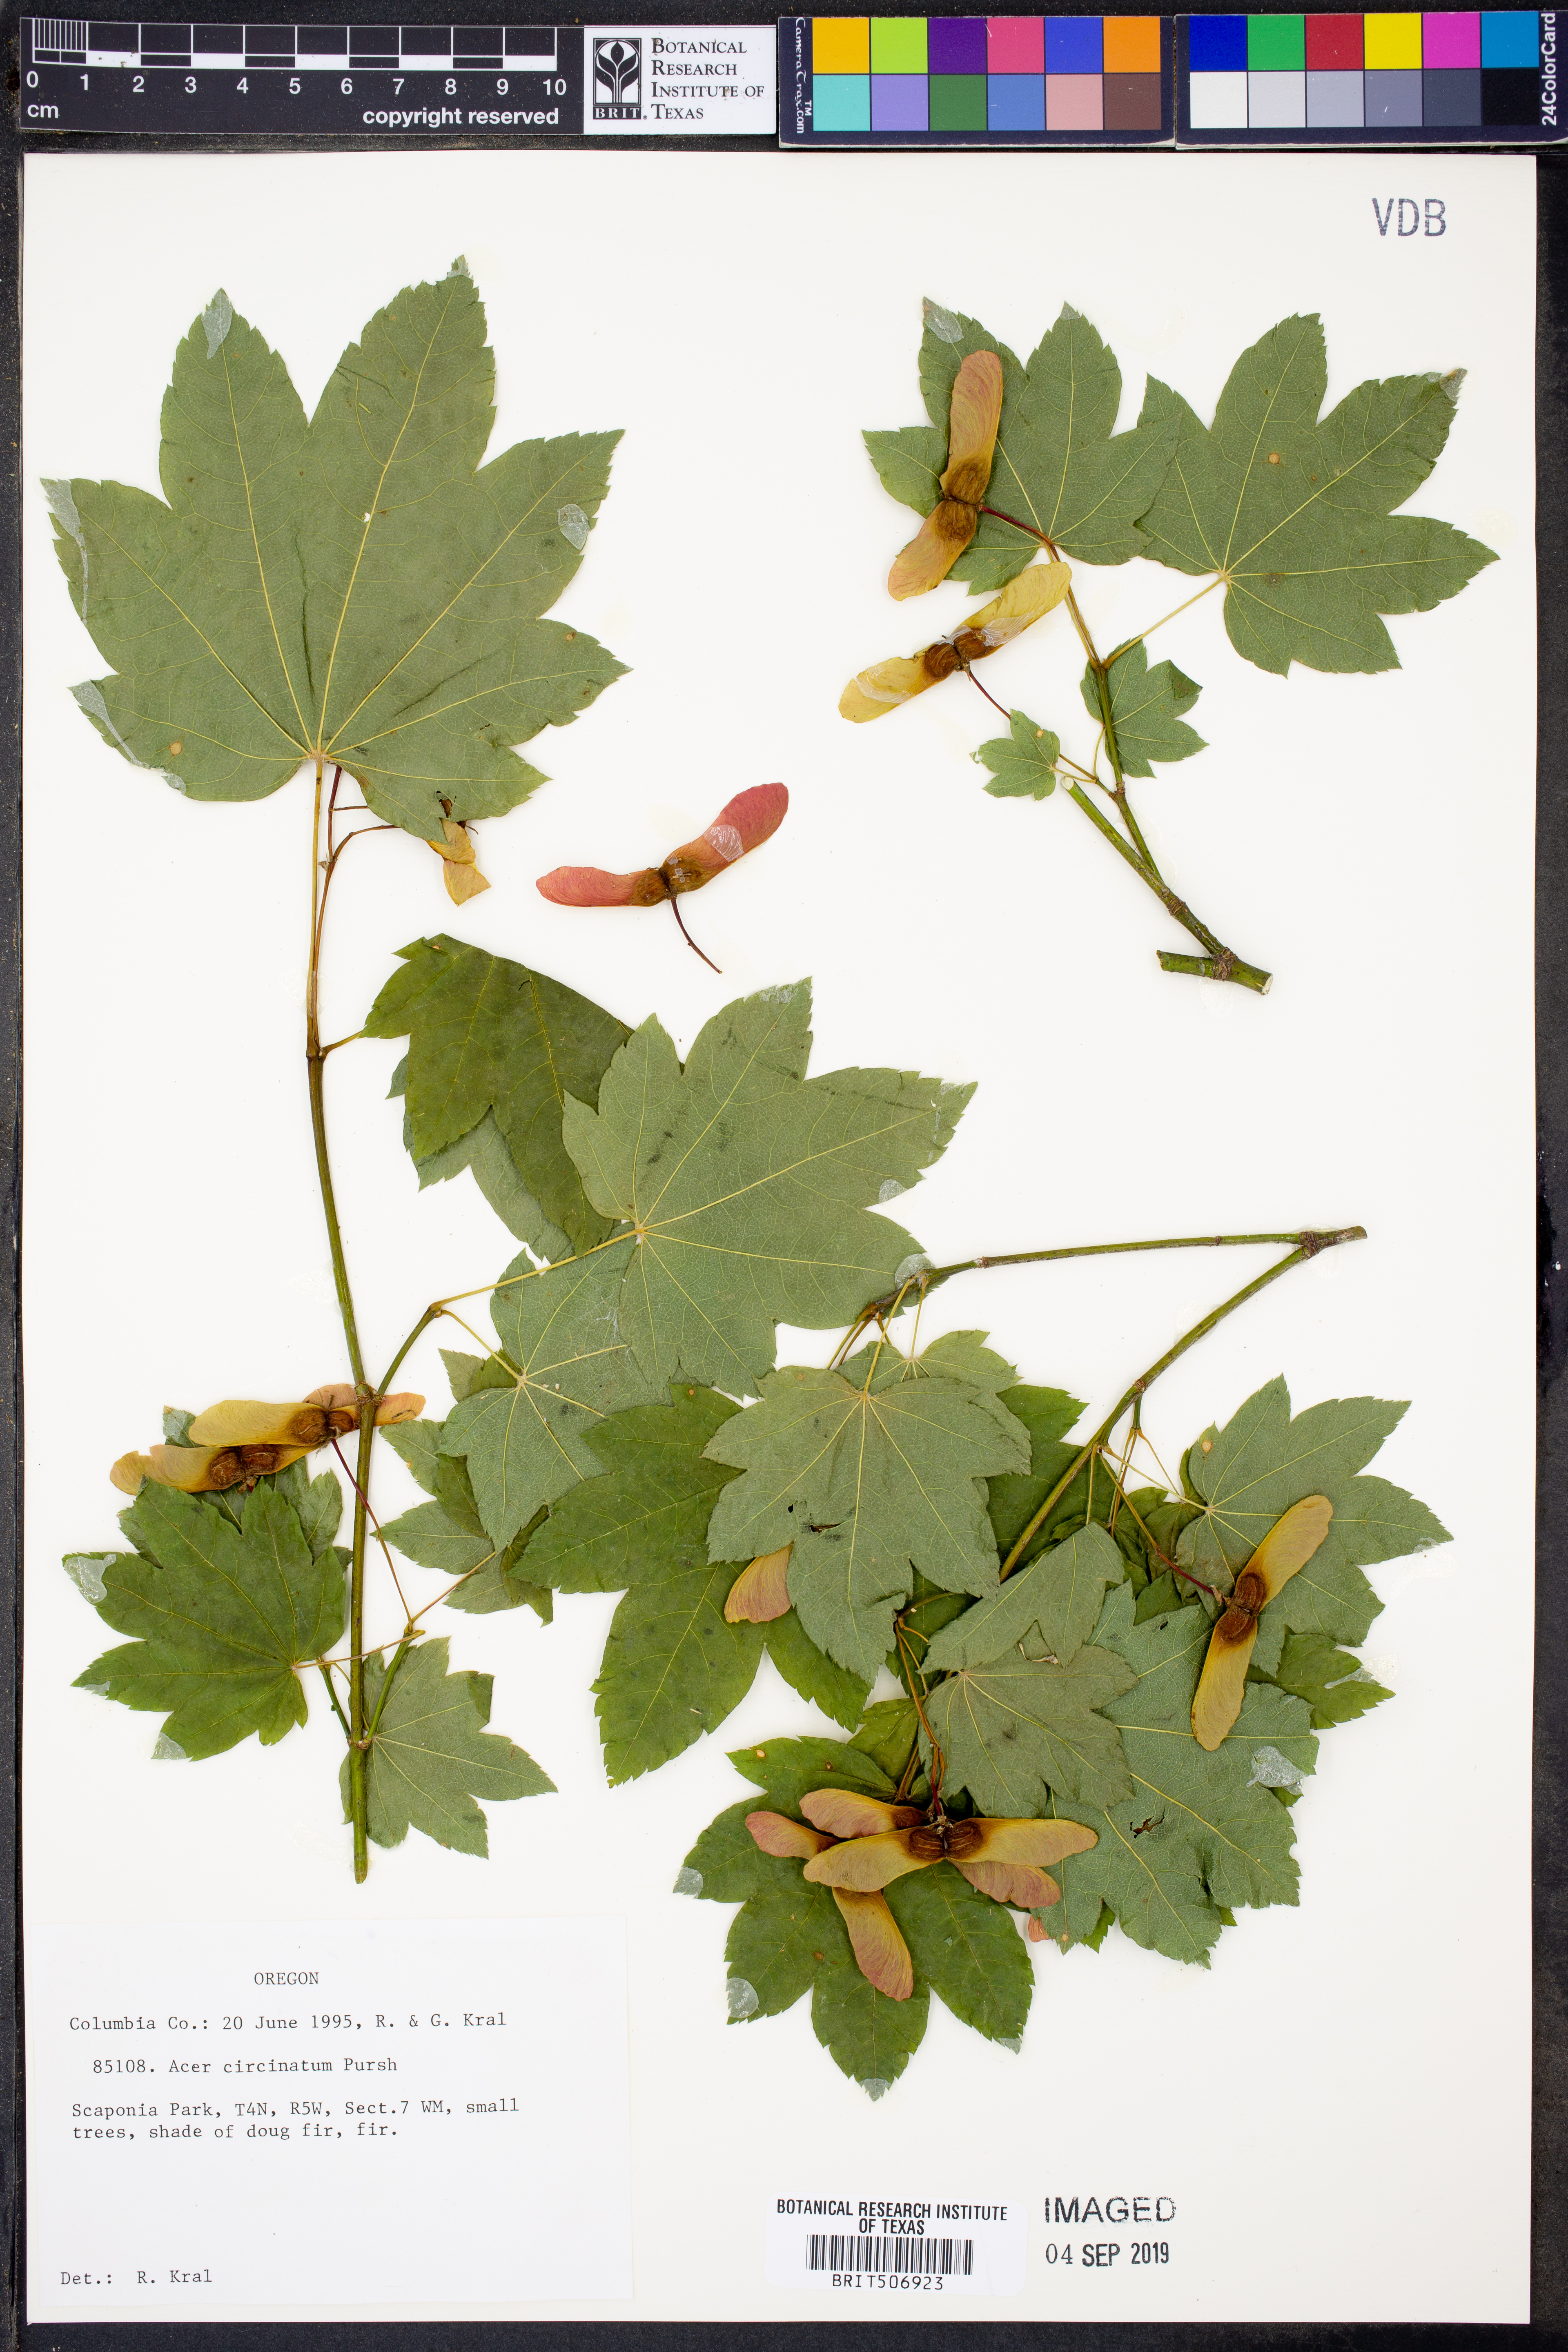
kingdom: Plantae
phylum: Tracheophyta
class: Magnoliopsida
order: Sapindales
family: Sapindaceae
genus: Acer
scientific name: Acer circinatum
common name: Vine maple
